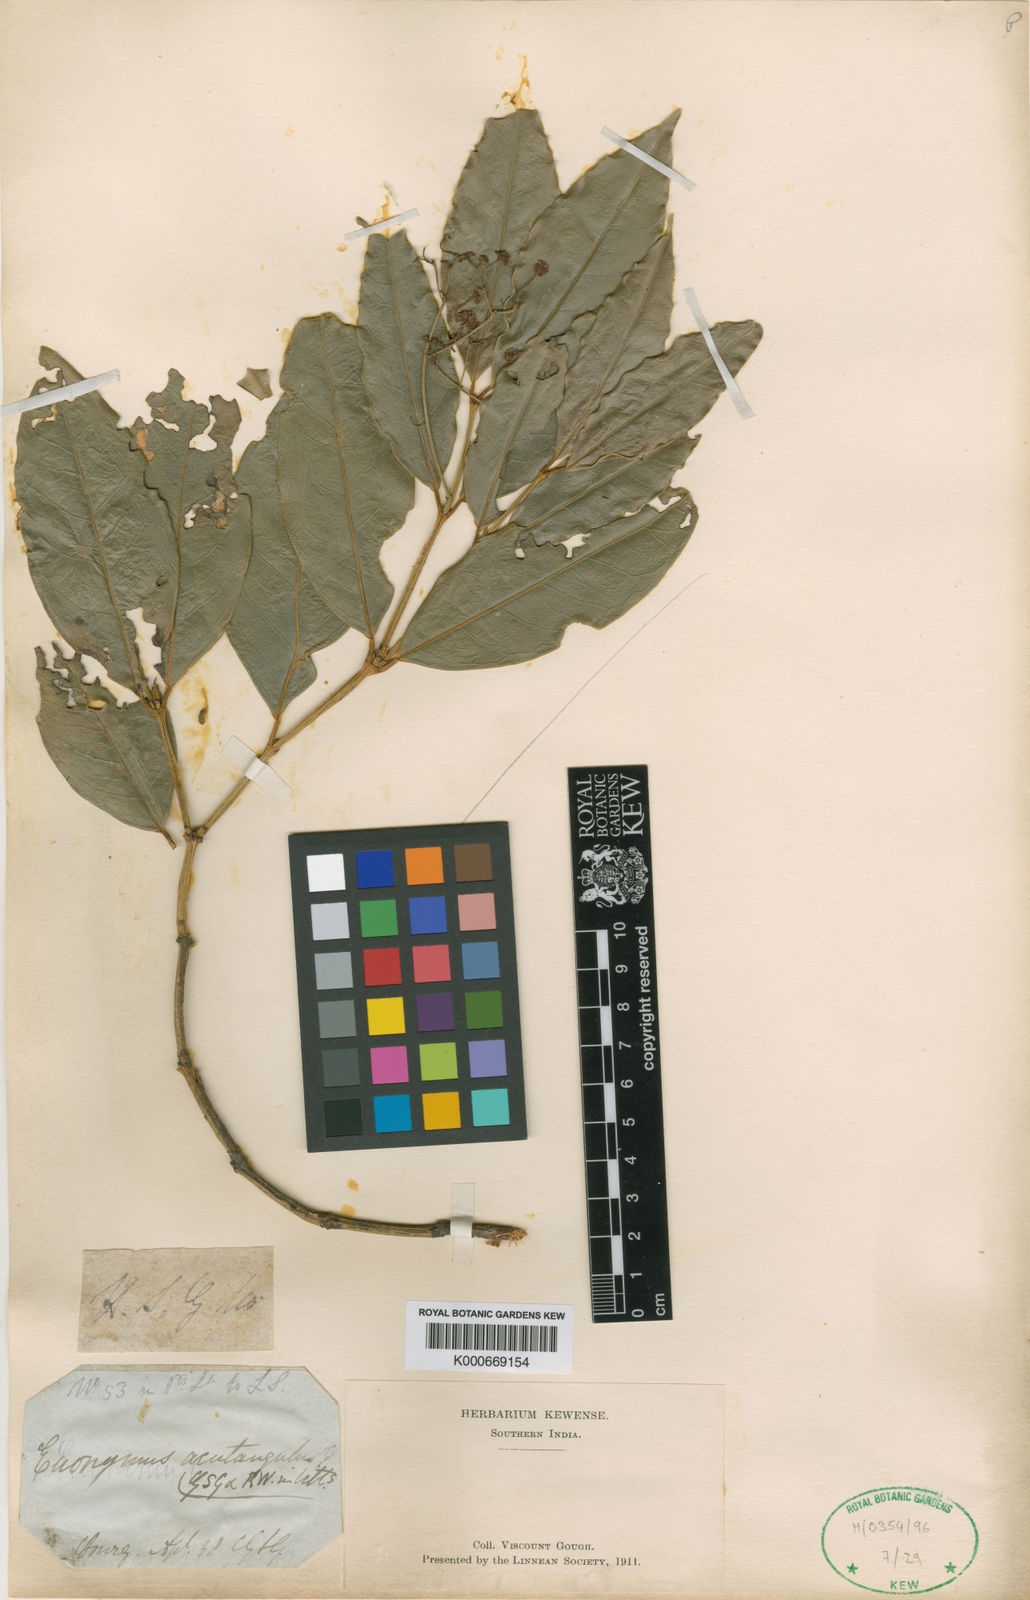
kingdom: Plantae
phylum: Tracheophyta
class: Magnoliopsida
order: Celastrales
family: Celastraceae
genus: Euonymus
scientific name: Euonymus angulatus
